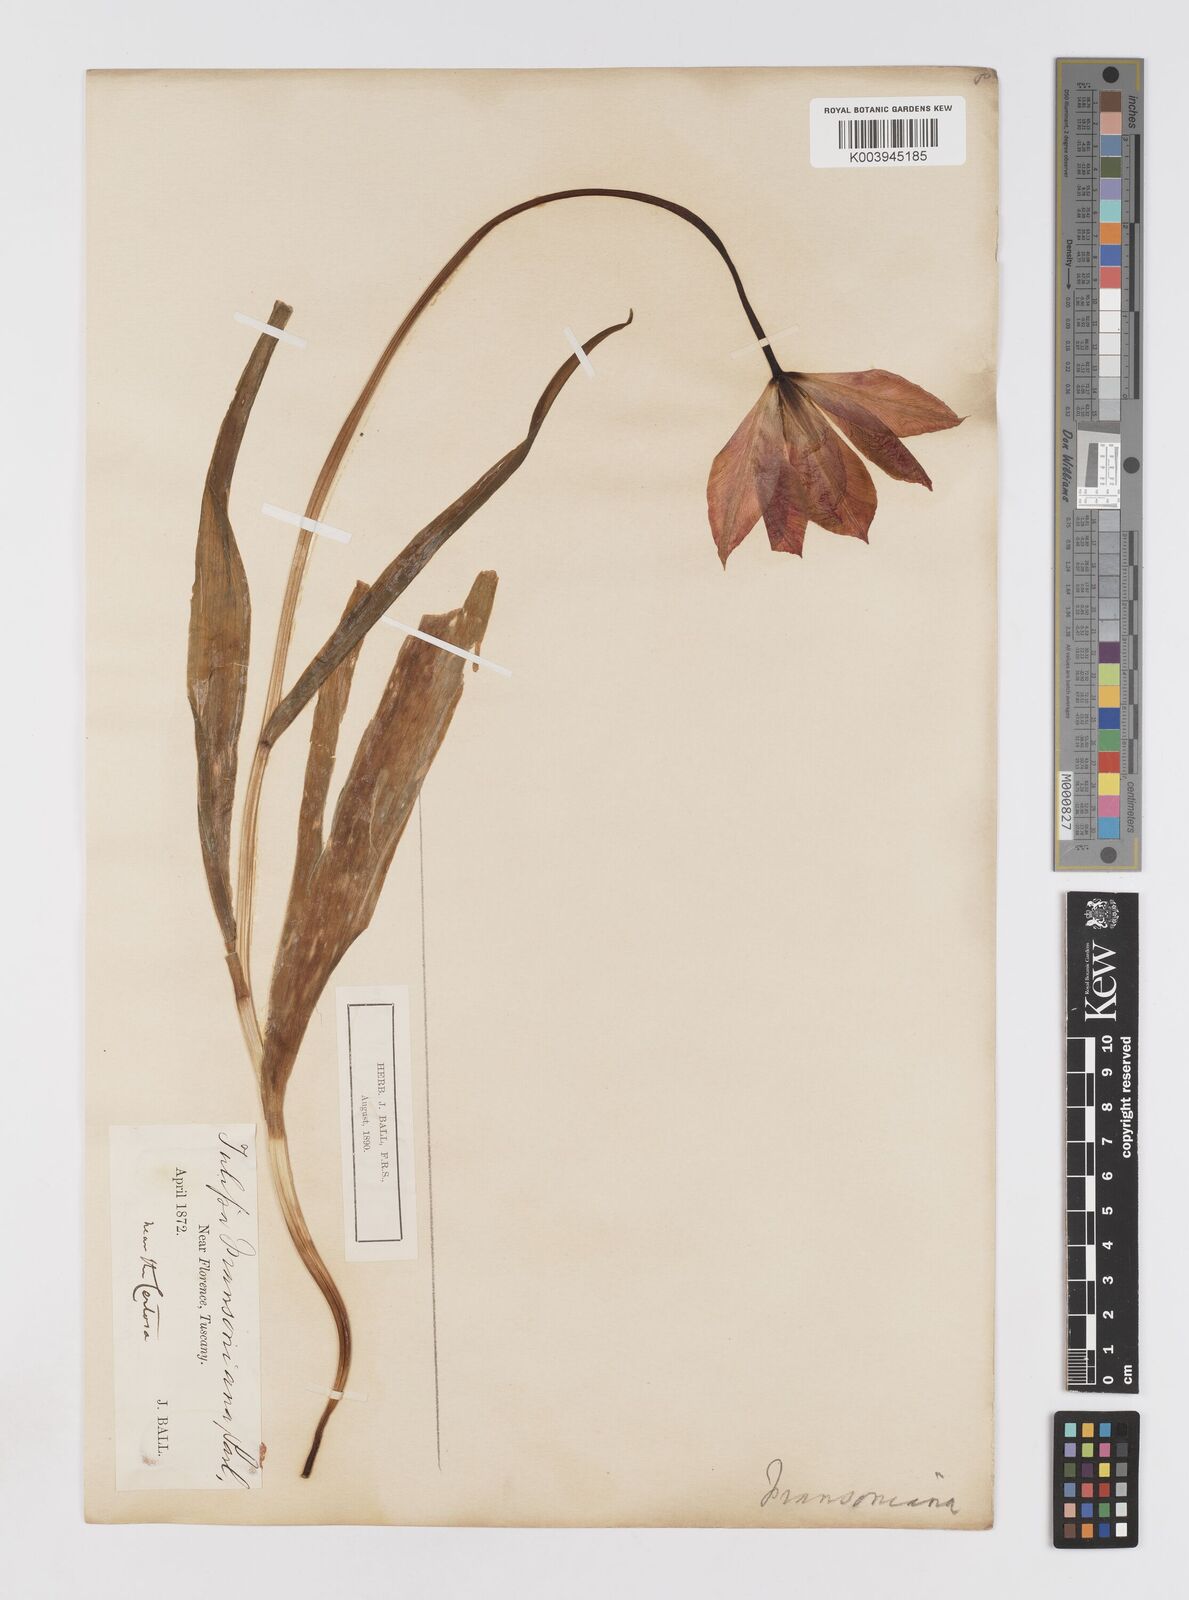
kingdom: Plantae
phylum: Tracheophyta
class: Liliopsida
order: Liliales
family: Liliaceae
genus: Tulipa
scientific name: Tulipa gesneriana
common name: Garden tulip
